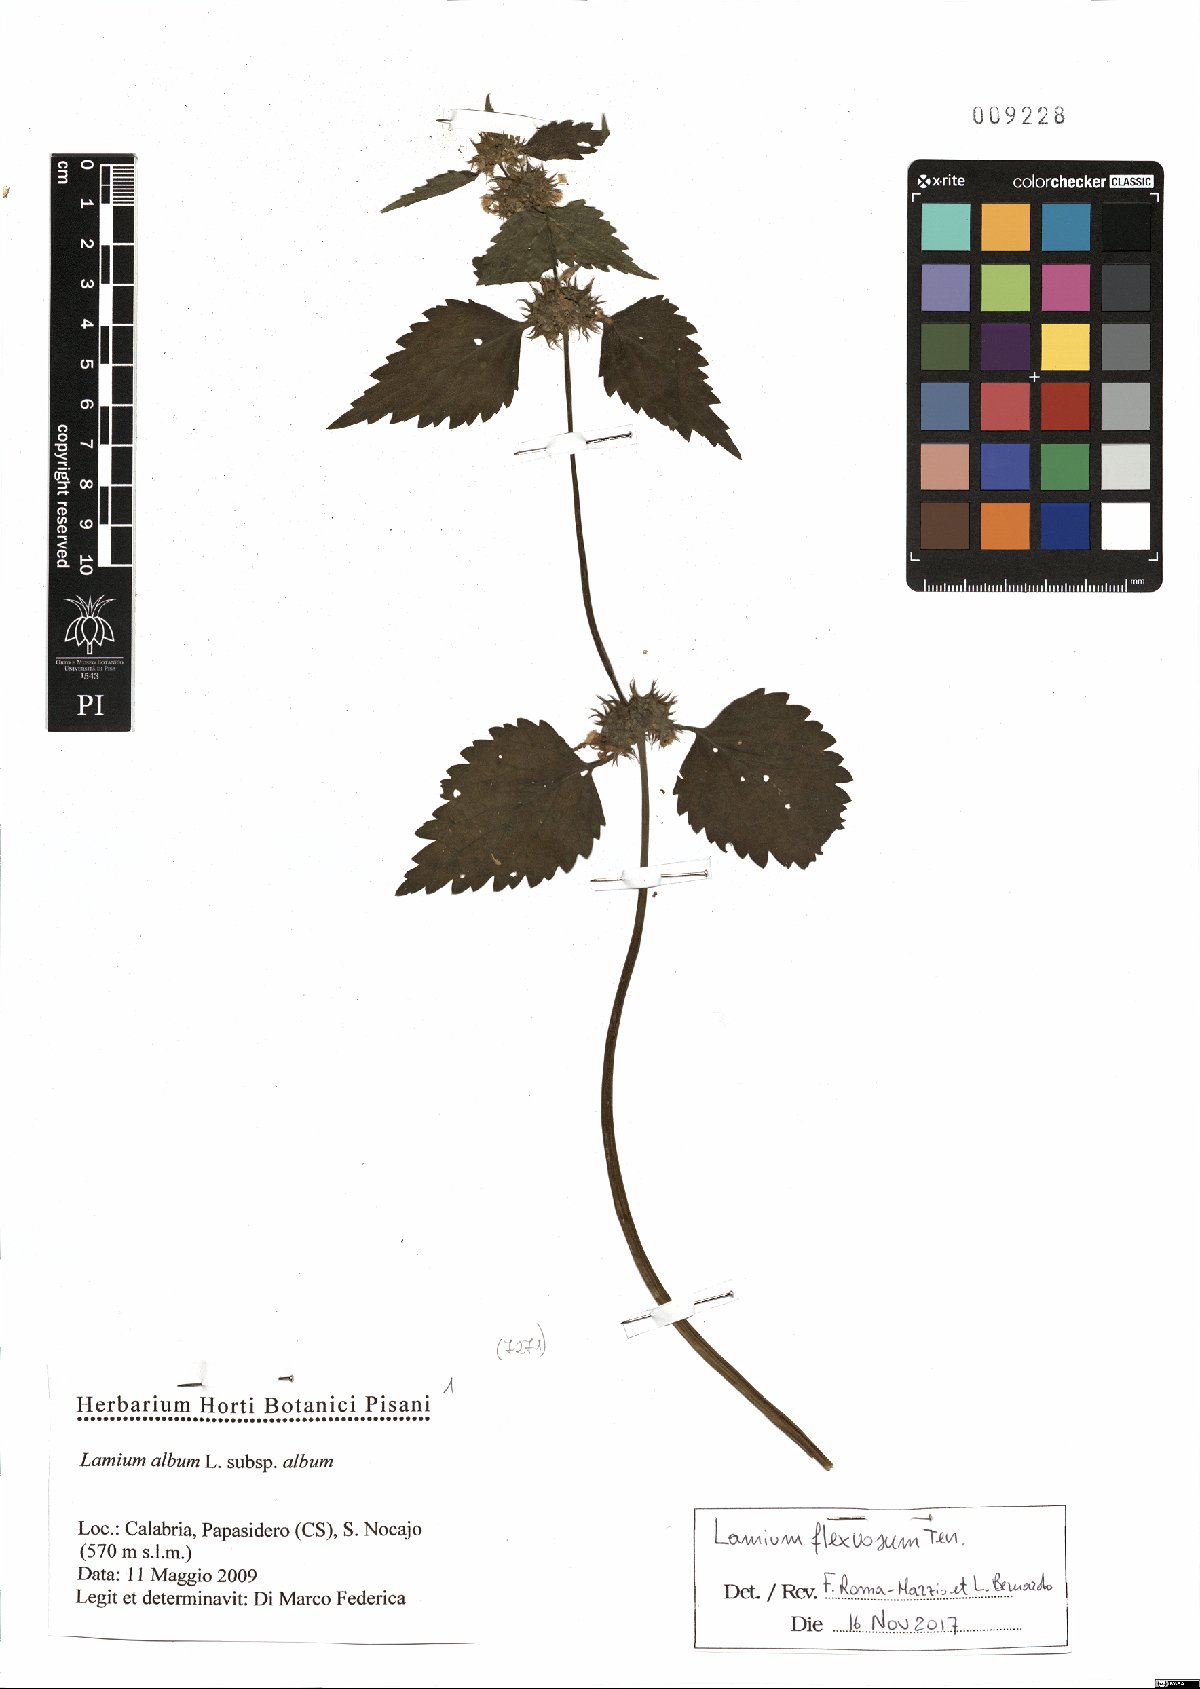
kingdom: Plantae
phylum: Tracheophyta
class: Magnoliopsida
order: Lamiales
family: Lamiaceae
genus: Lamium
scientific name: Lamium flexuosum
